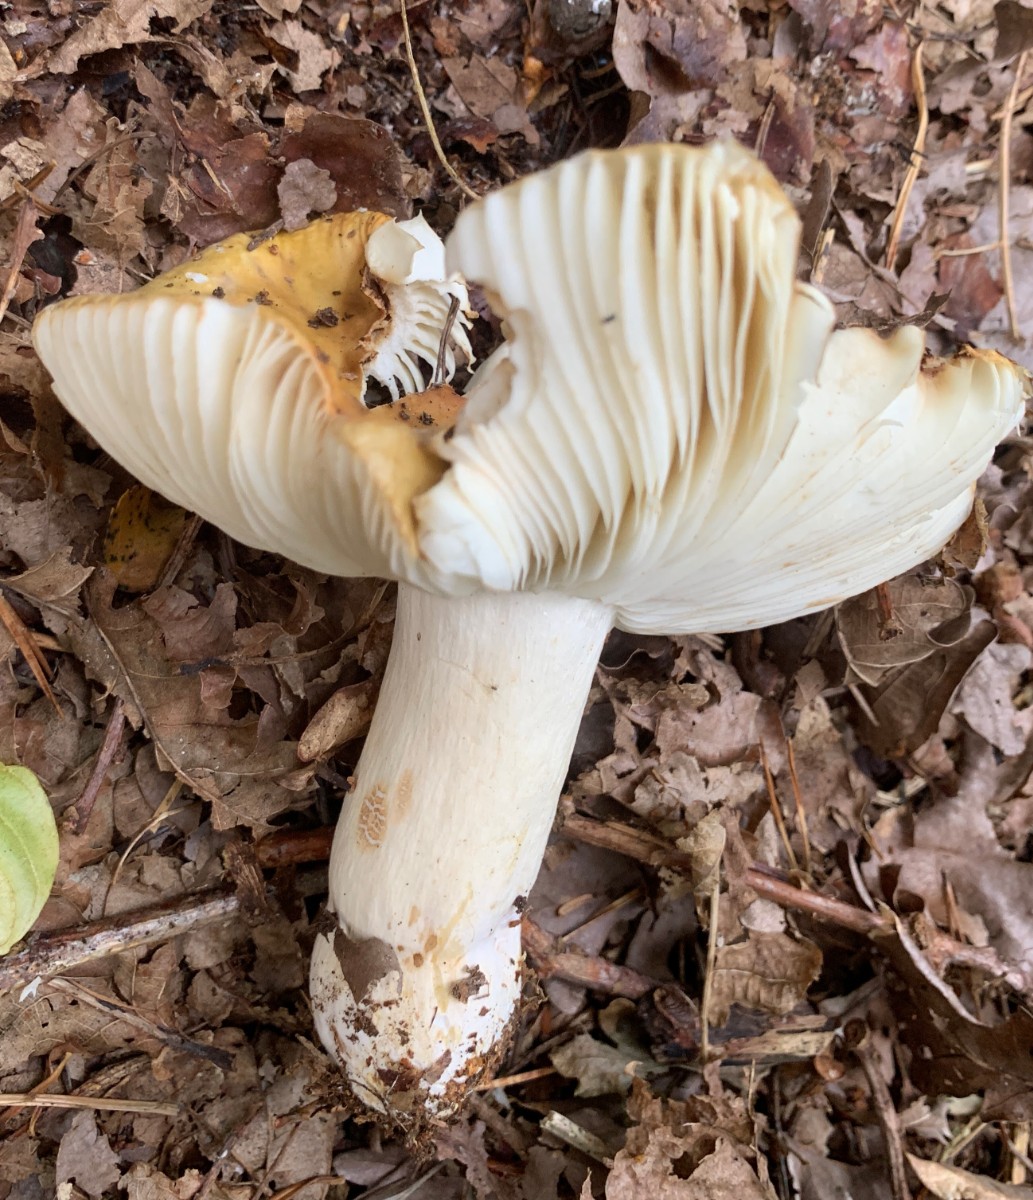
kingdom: Fungi
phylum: Basidiomycota
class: Agaricomycetes
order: Russulales
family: Russulaceae
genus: Russula
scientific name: Russula ochroleuca
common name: okkergul skørhat
